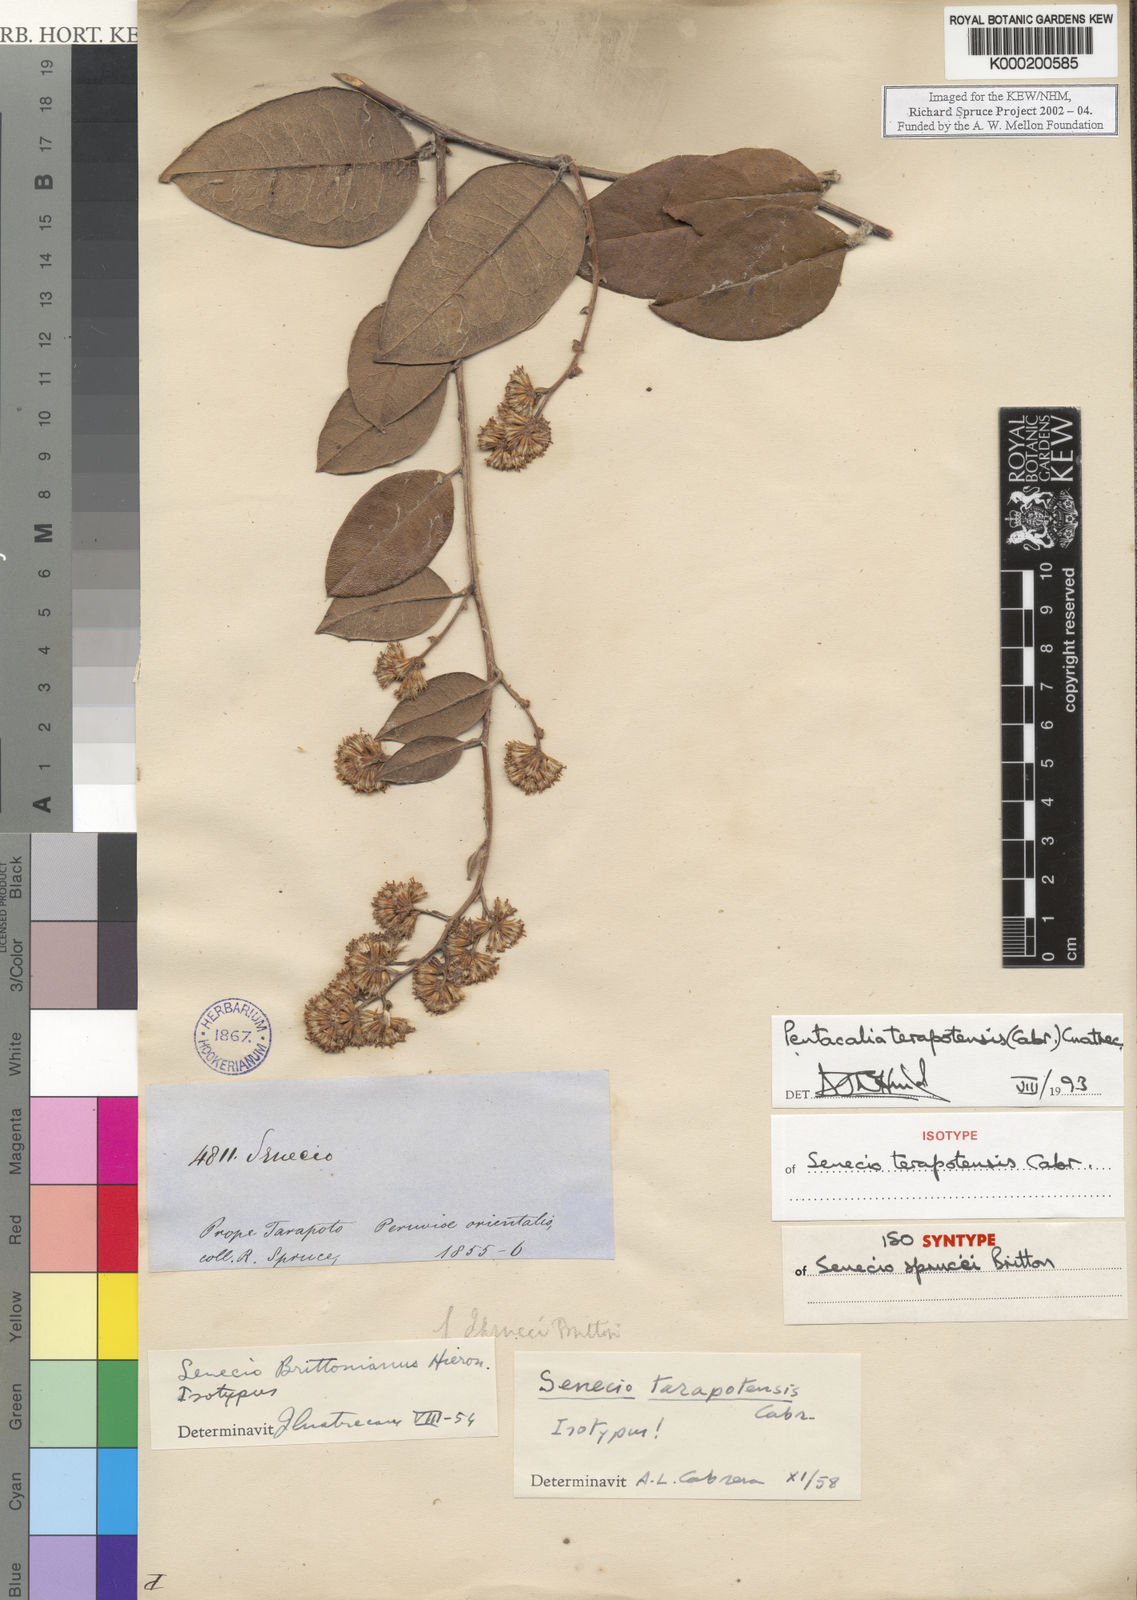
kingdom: Plantae
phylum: Tracheophyta
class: Magnoliopsida
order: Asterales
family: Asteraceae
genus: Pentacalia
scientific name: Pentacalia tarapotensis
